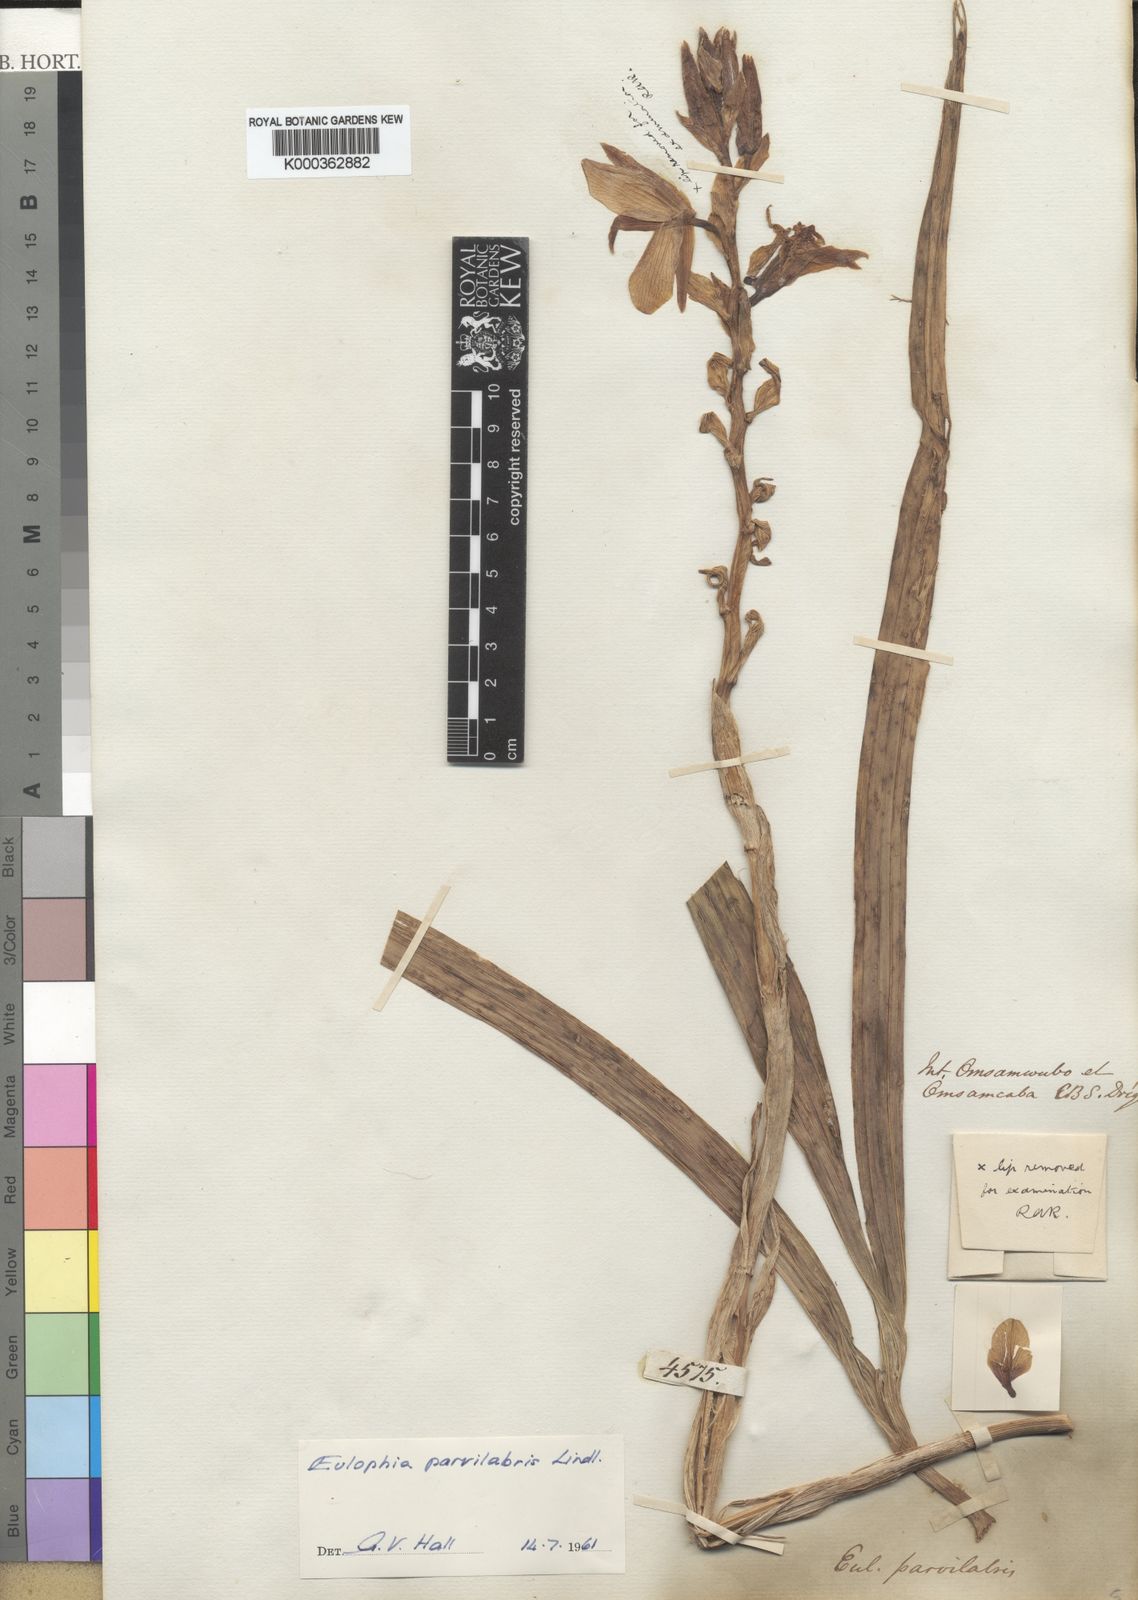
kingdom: Plantae
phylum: Tracheophyta
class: Liliopsida
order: Asparagales
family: Orchidaceae
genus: Eulophia
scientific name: Eulophia parvilabris
